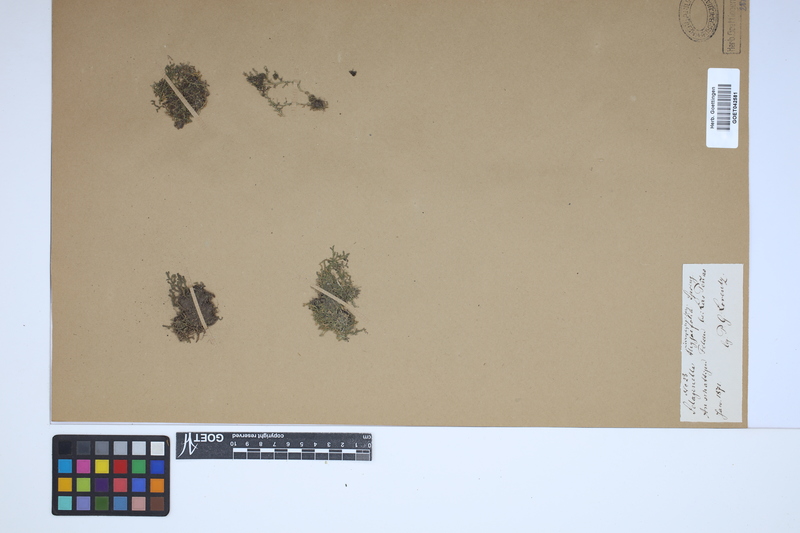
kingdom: Plantae
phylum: Tracheophyta
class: Lycopodiopsida
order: Selaginellales
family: Selaginellaceae
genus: Selaginella
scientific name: Selaginella microphylla
